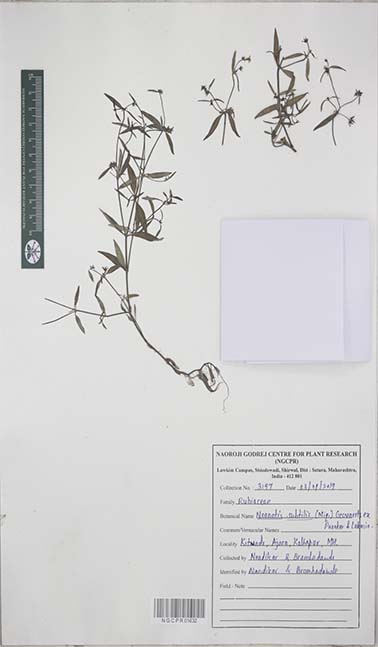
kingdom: Plantae
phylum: Tracheophyta
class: Magnoliopsida
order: Gentianales
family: Rubiaceae
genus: Neanotis
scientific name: Neanotis subtilis
